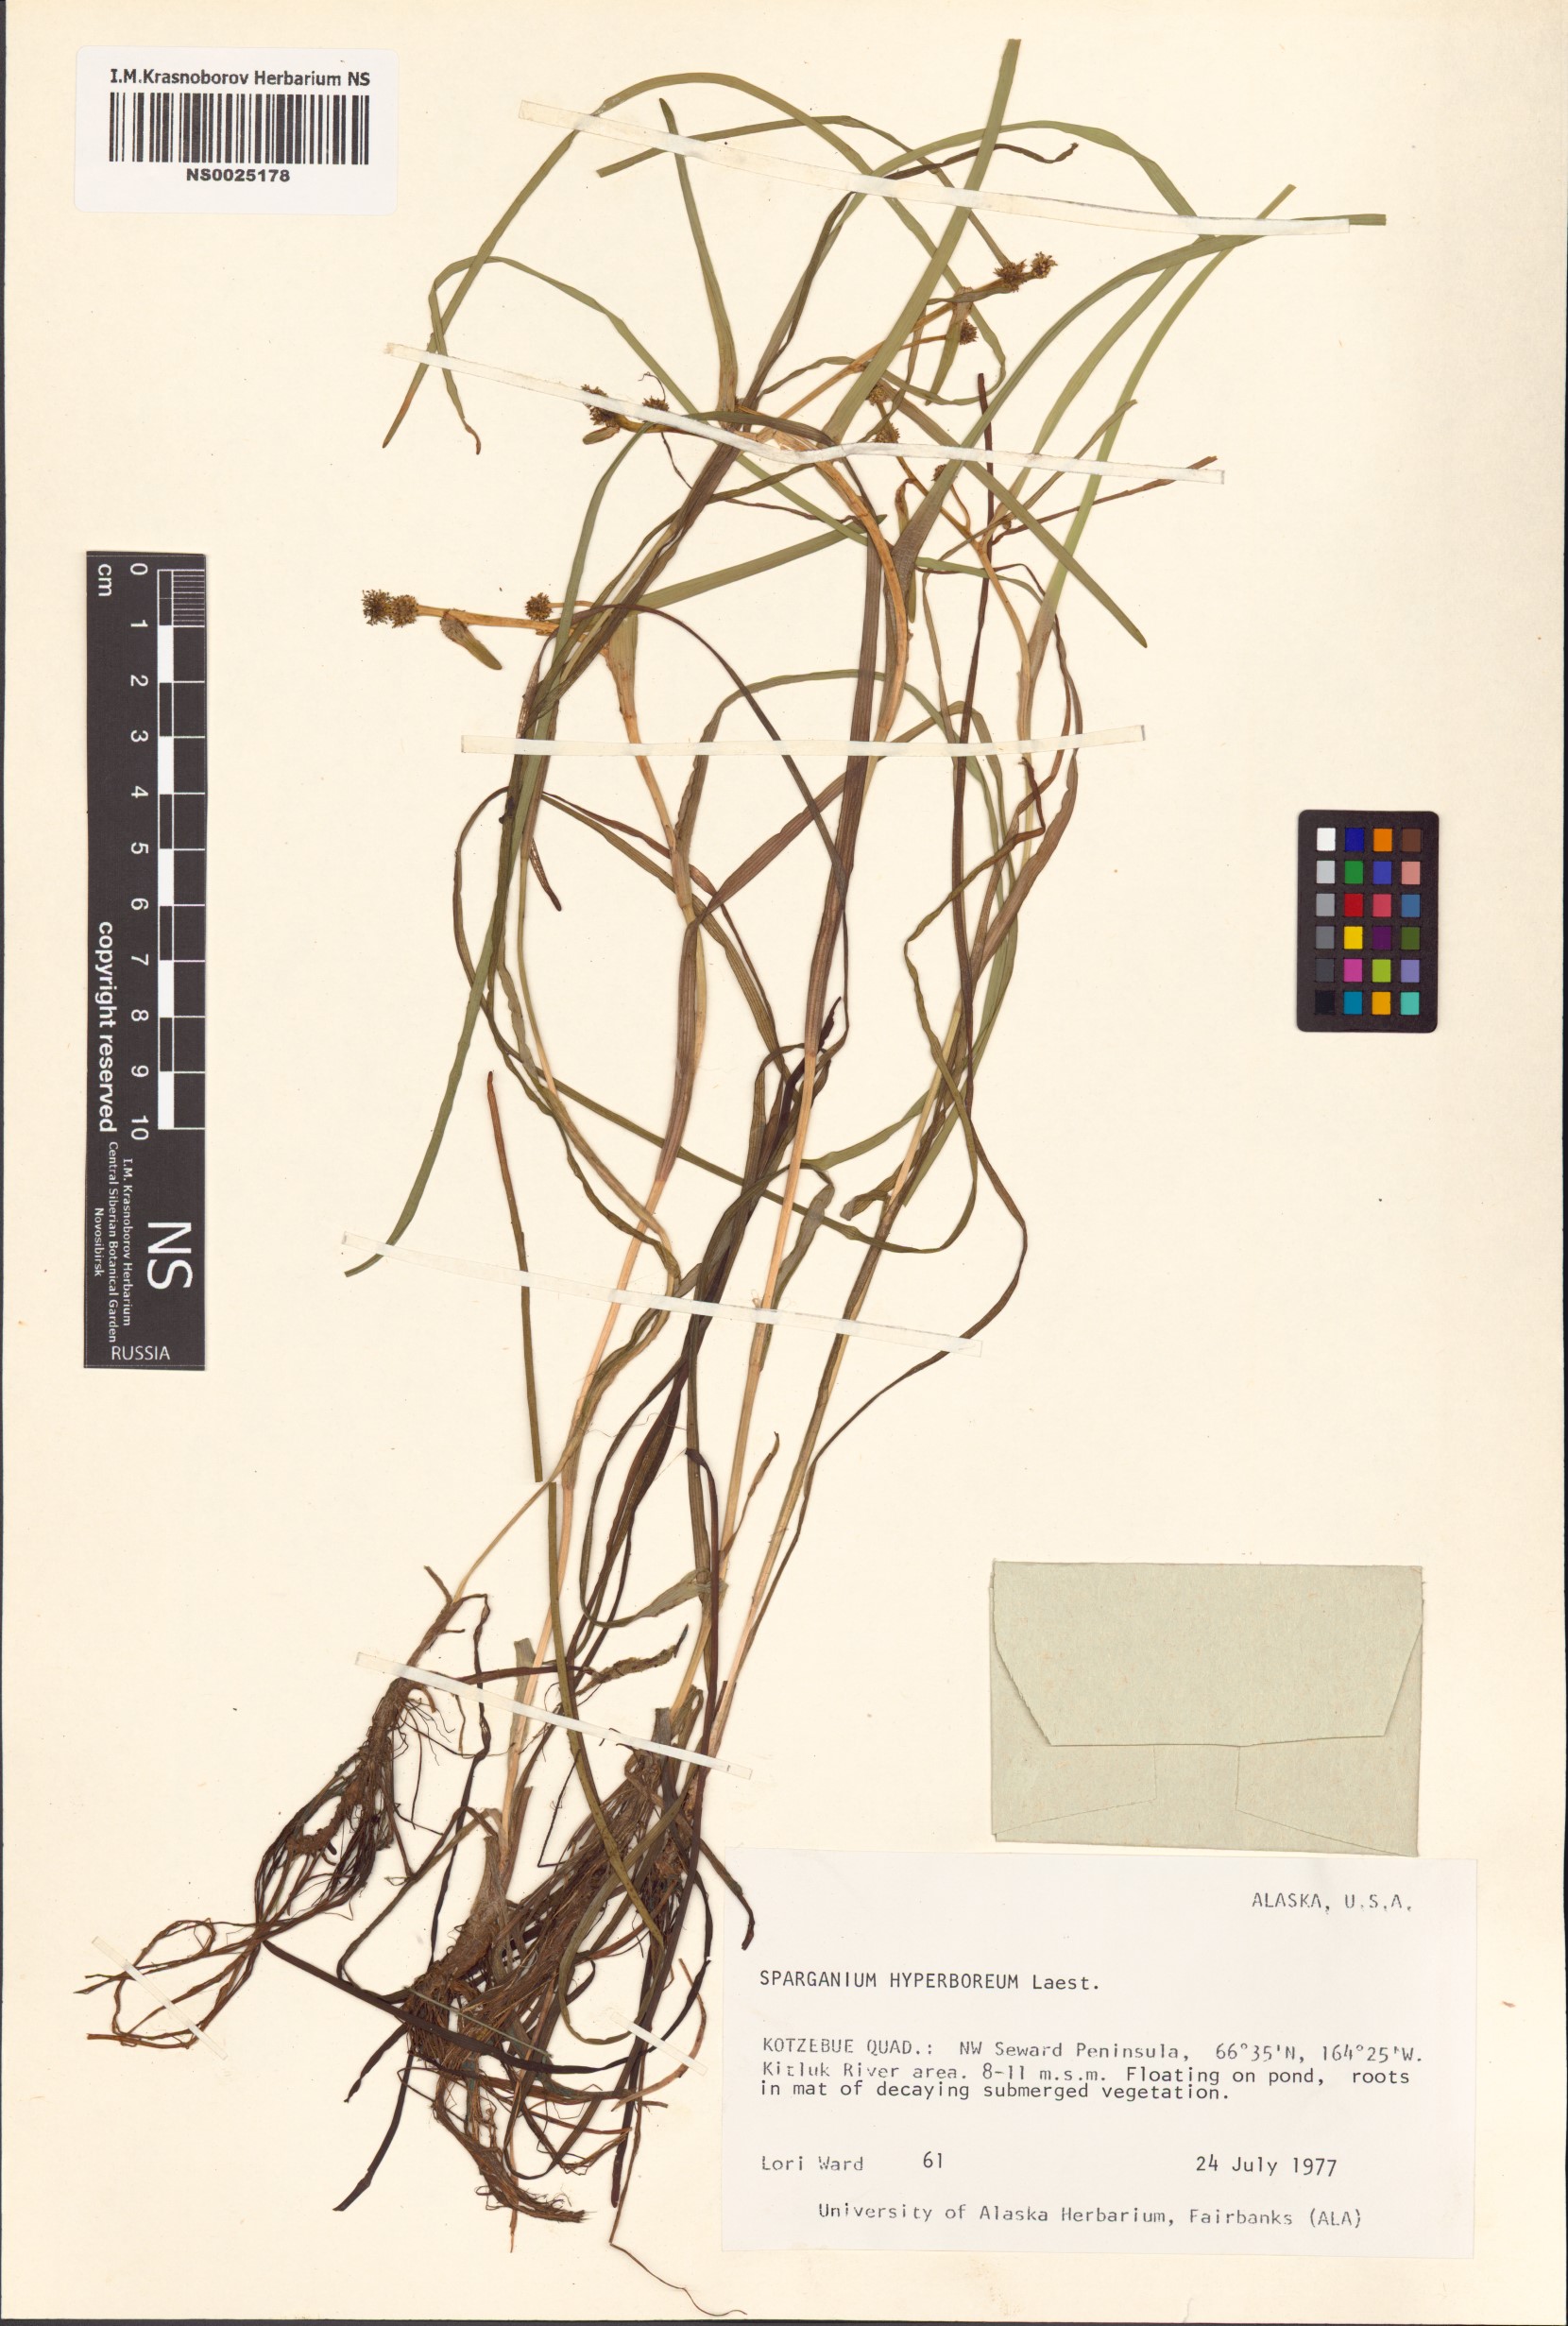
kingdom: Plantae
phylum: Tracheophyta
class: Liliopsida
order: Poales
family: Typhaceae
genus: Sparganium
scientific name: Sparganium hyperboreum
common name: Arctic burreed
